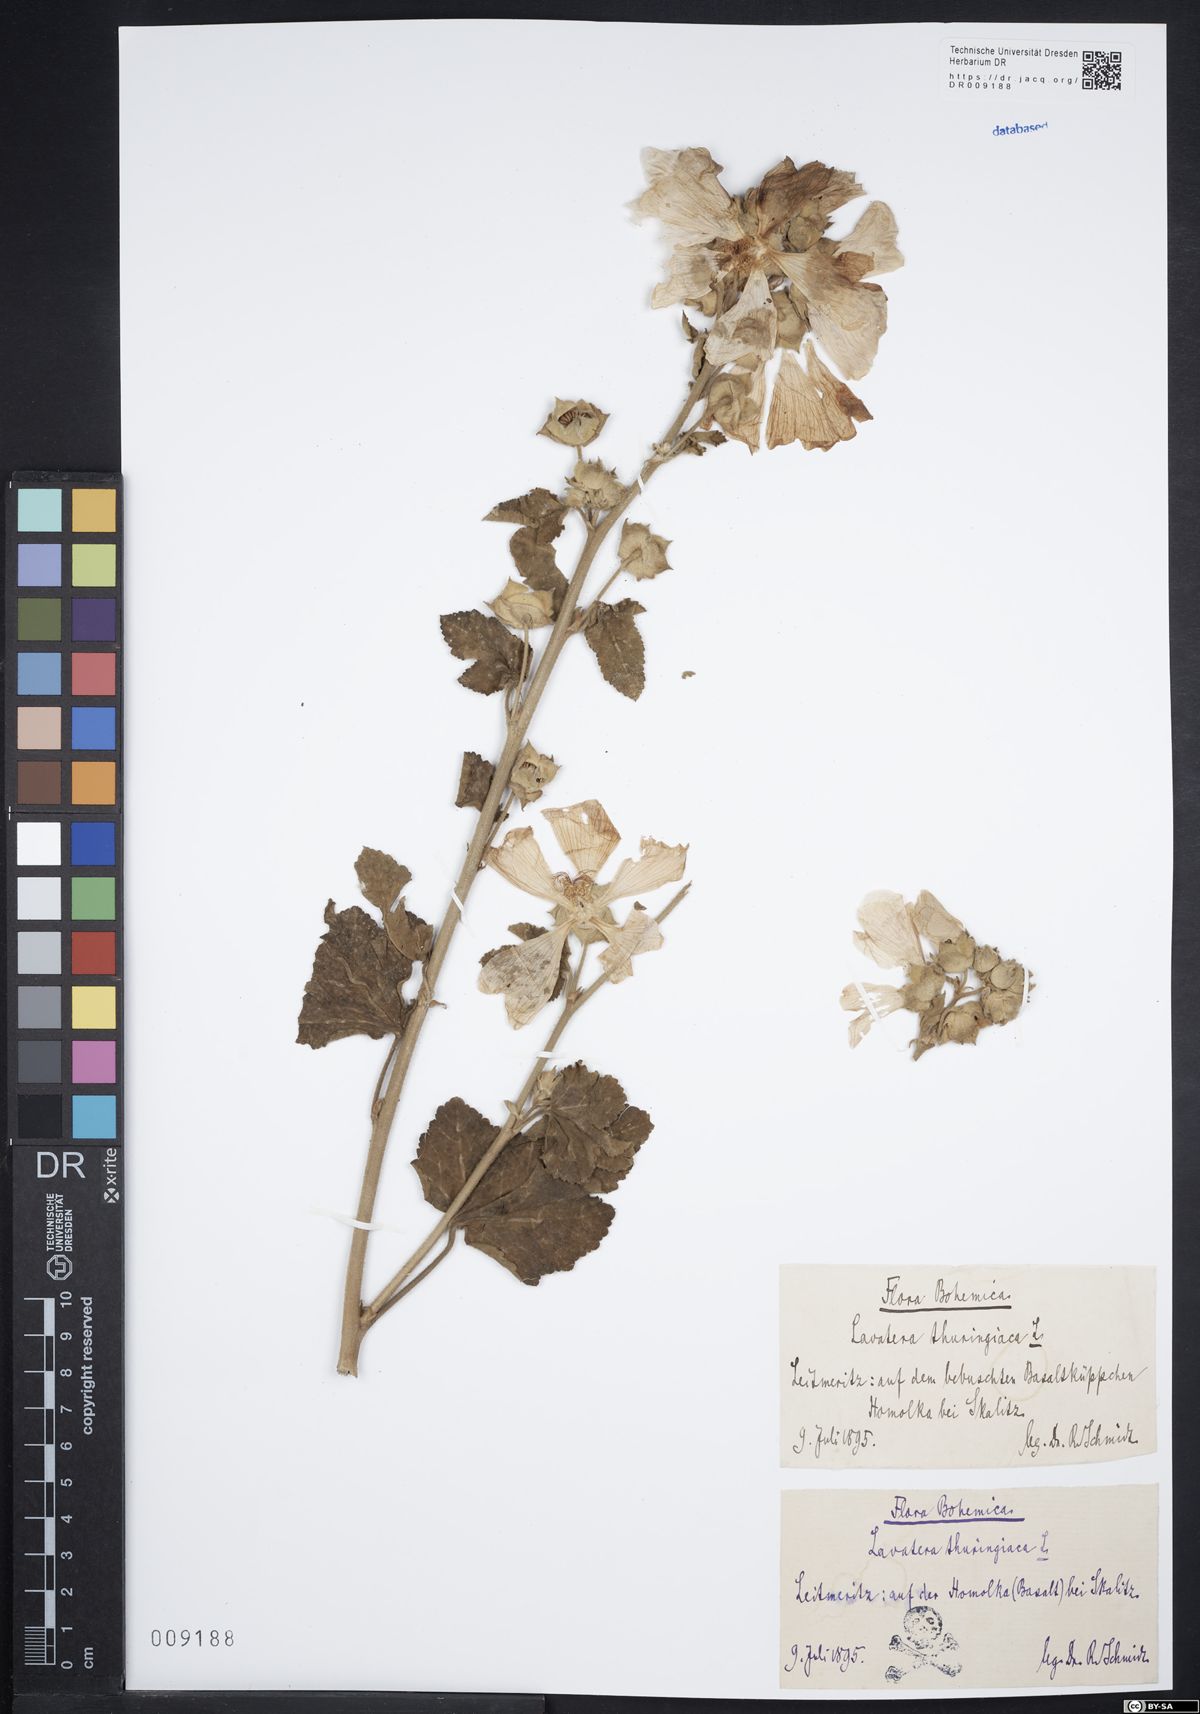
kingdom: Plantae
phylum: Tracheophyta
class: Magnoliopsida
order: Malvales
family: Malvaceae
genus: Malva
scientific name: Malva thuringiaca
